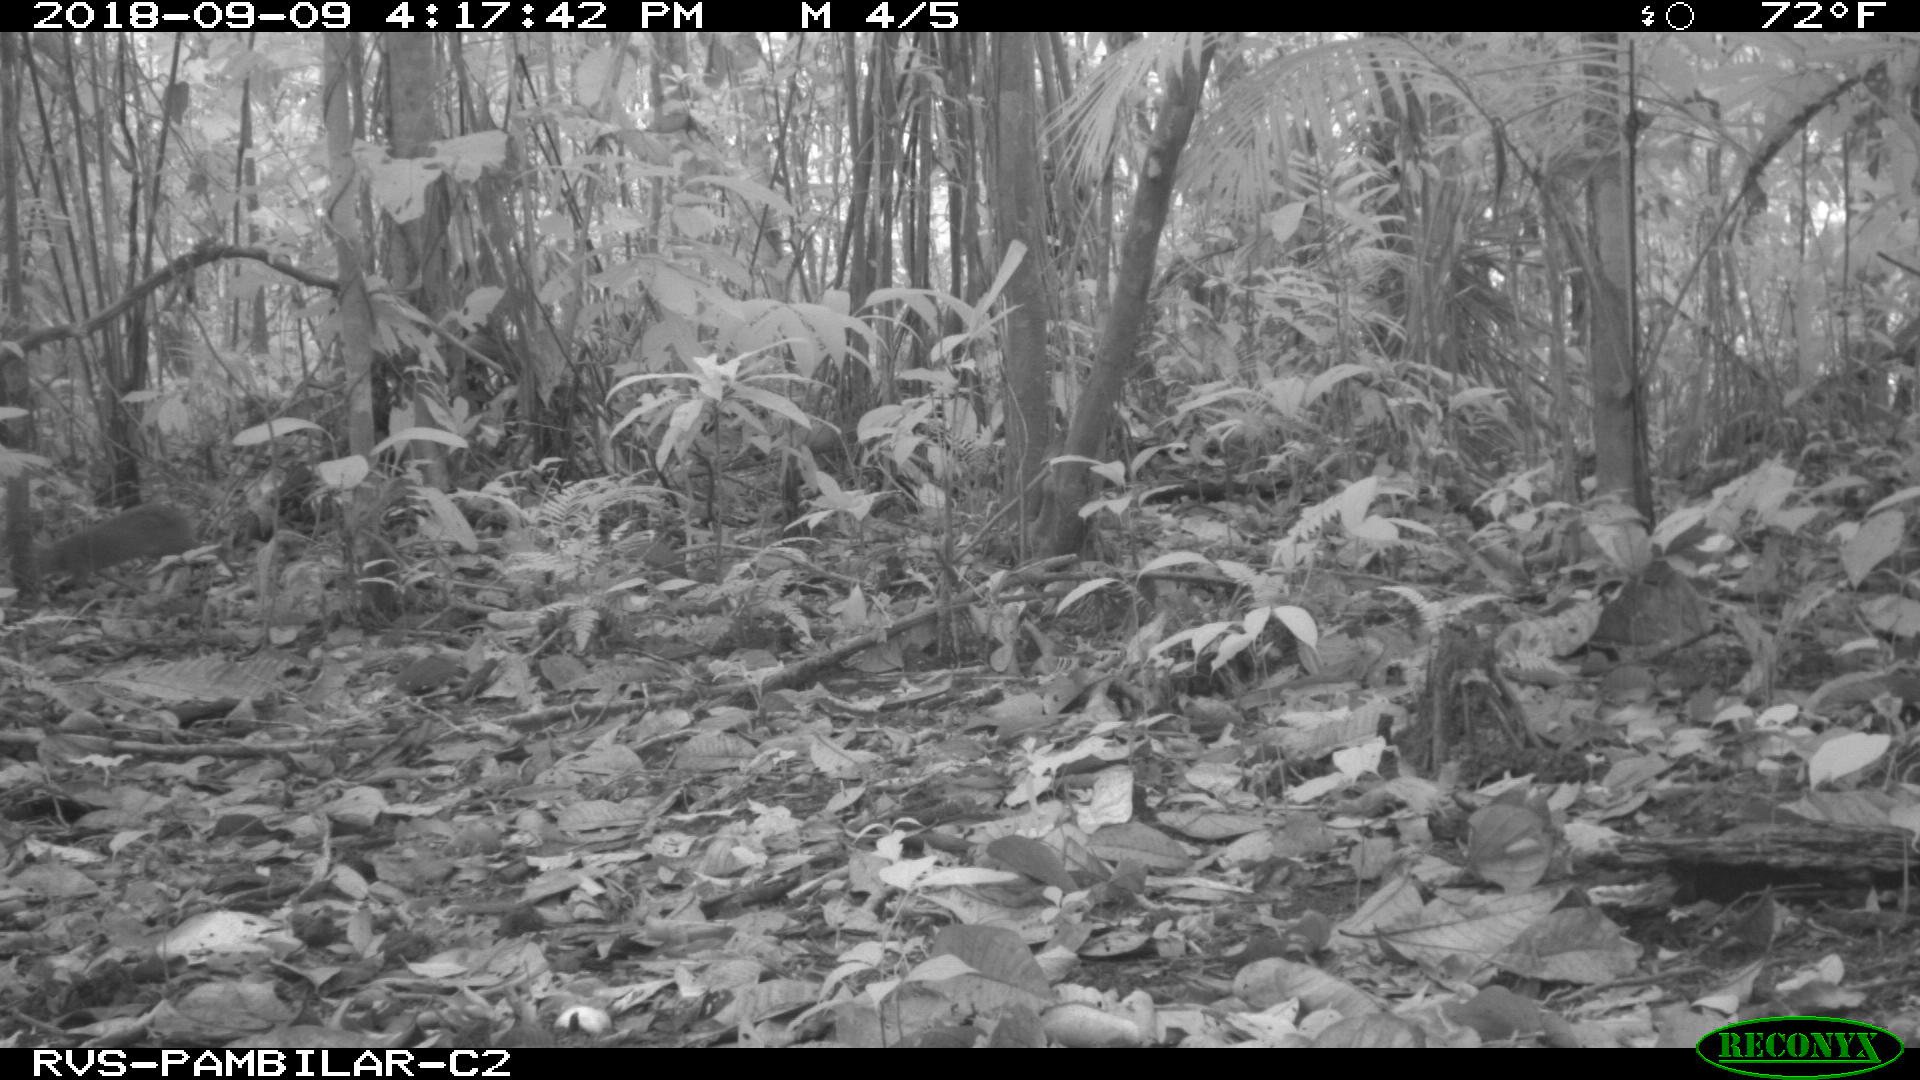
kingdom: Animalia
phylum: Chordata
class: Mammalia
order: Rodentia
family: Dasyproctidae
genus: Dasyprocta
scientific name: Dasyprocta punctata
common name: Central american agouti
